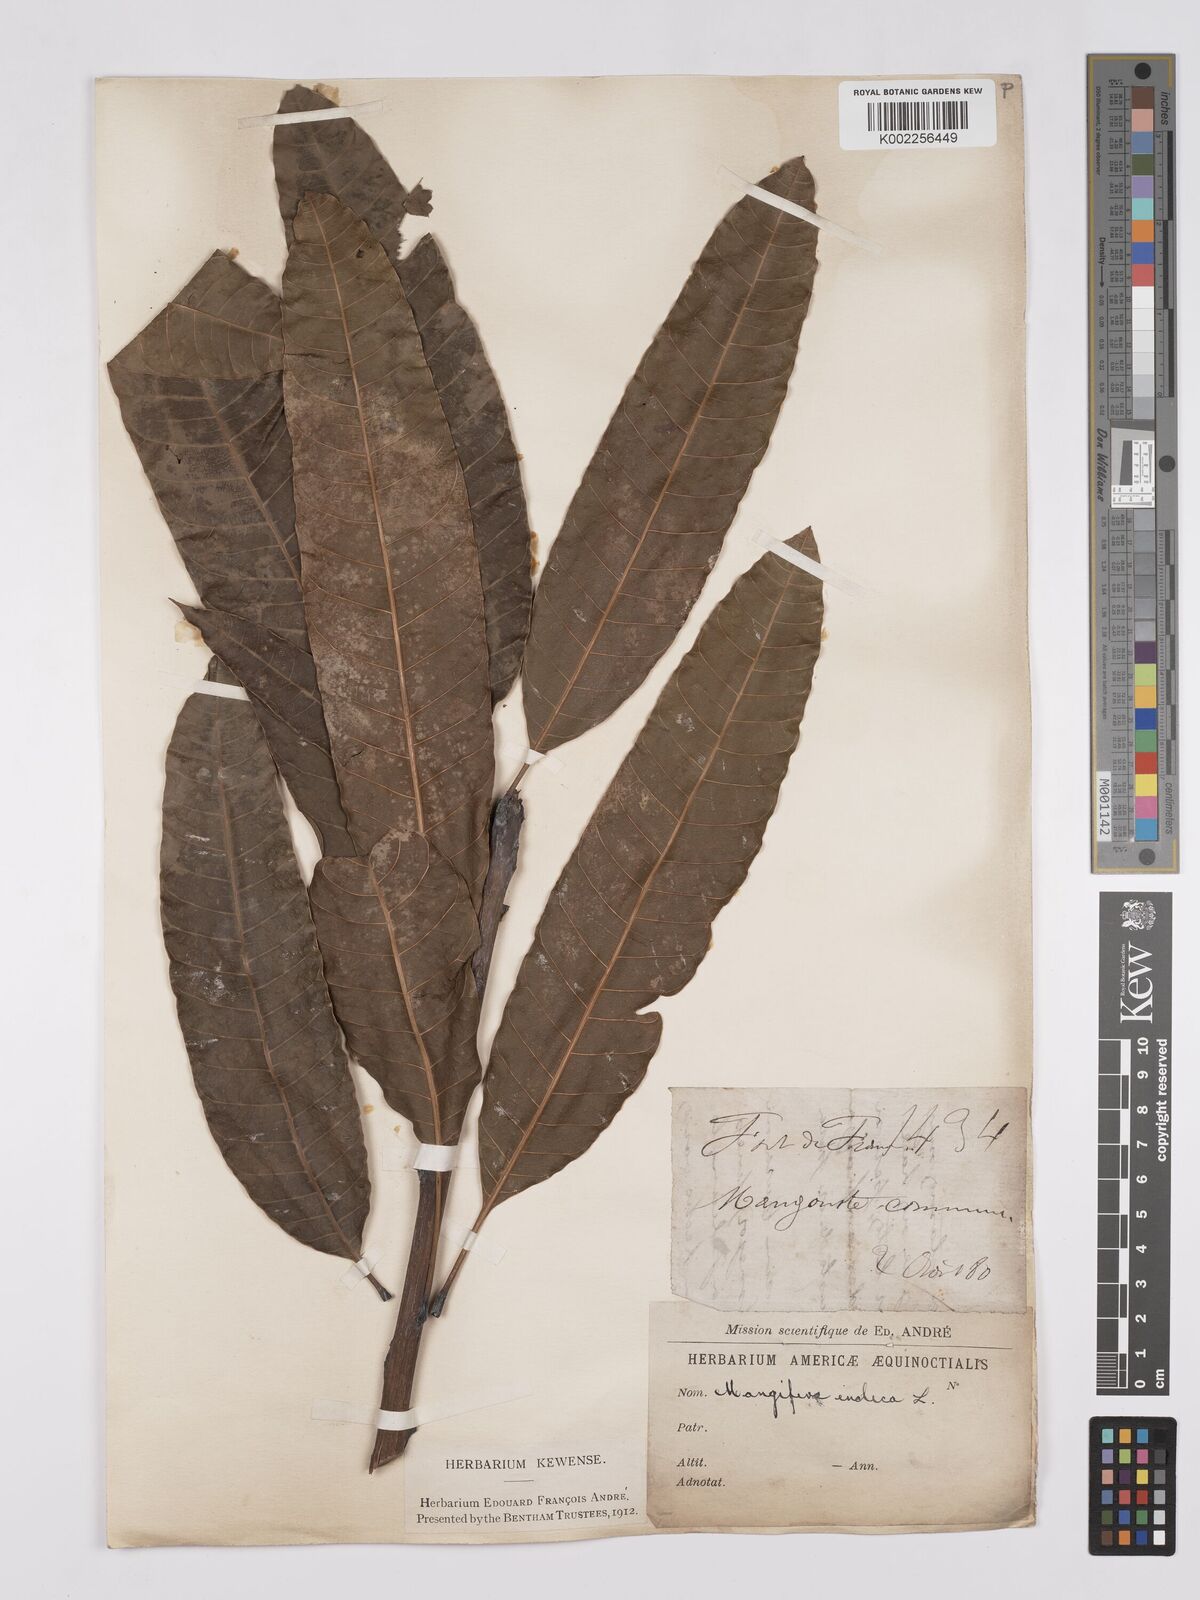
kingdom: Plantae
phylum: Tracheophyta
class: Magnoliopsida
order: Sapindales
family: Anacardiaceae
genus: Mangifera
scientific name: Mangifera indica
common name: Mango
